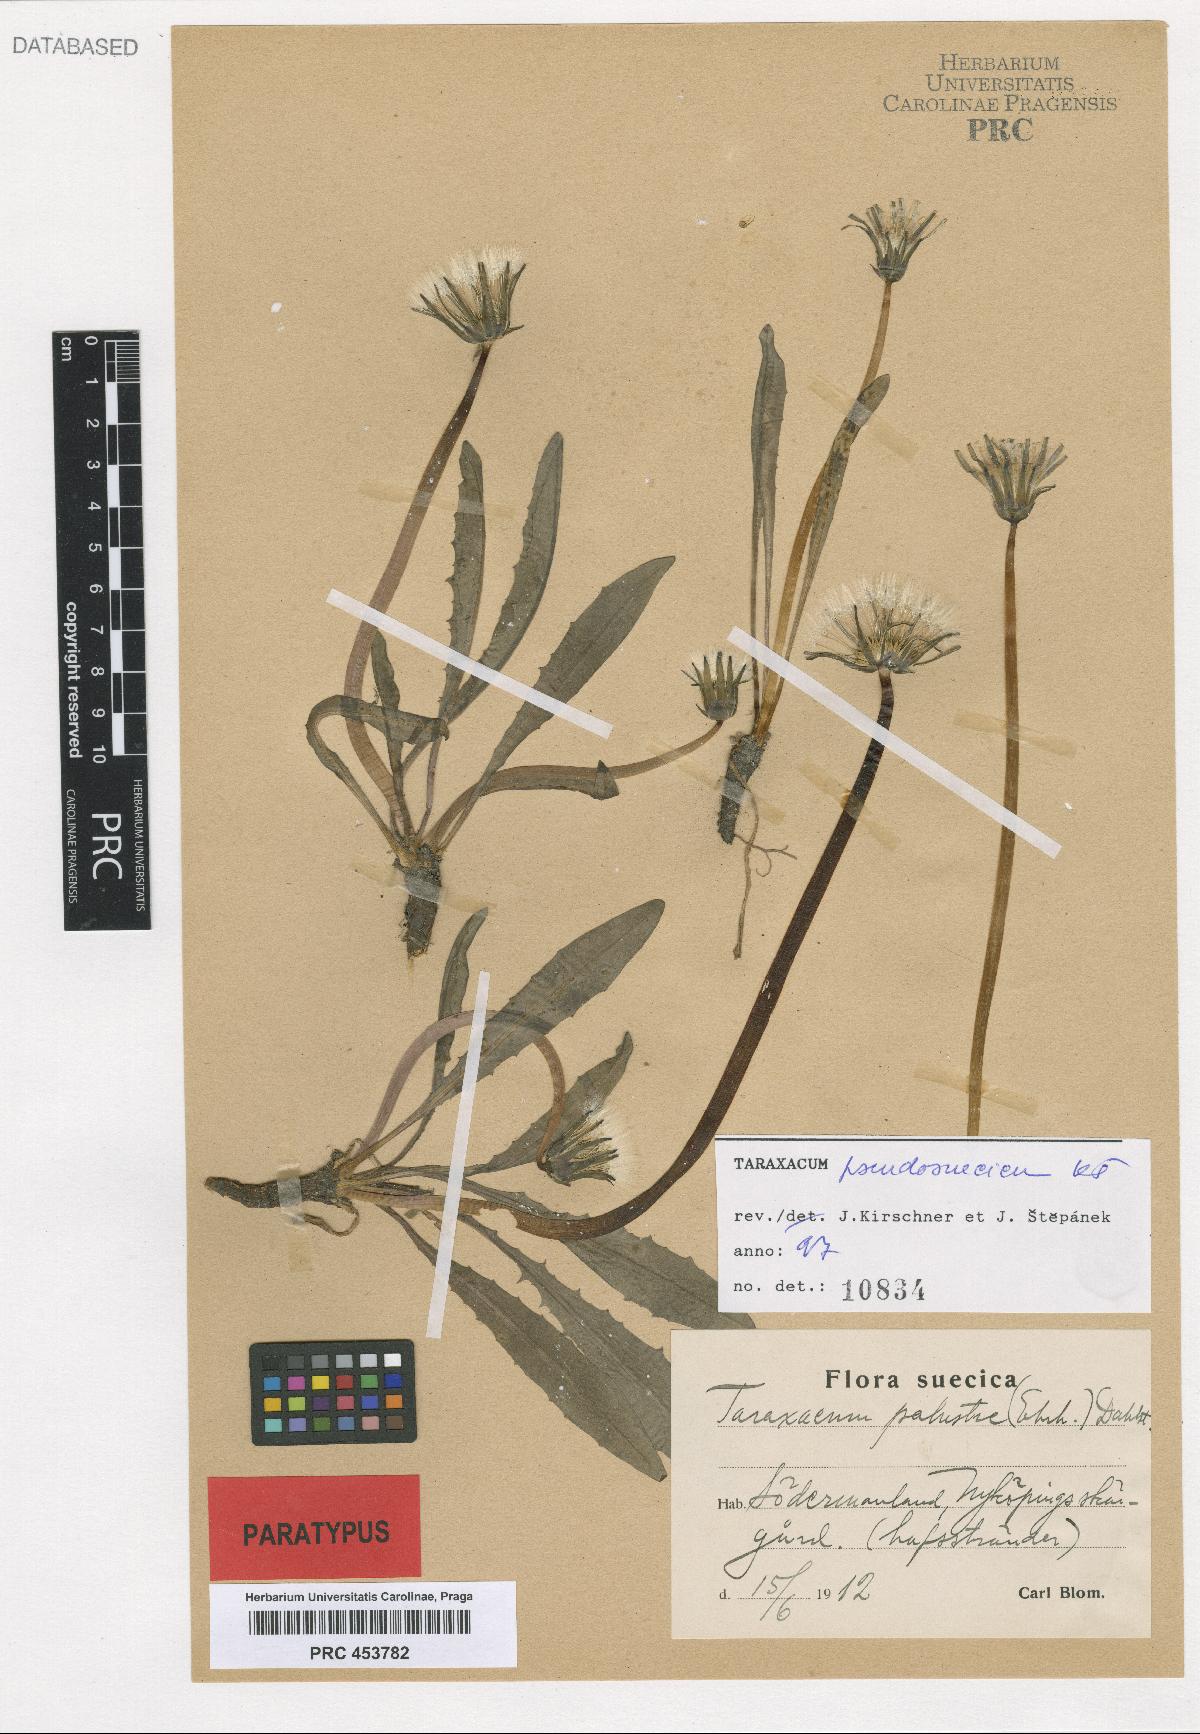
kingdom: Plantae
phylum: Tracheophyta
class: Magnoliopsida
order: Asterales
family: Asteraceae
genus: Taraxacum
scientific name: Taraxacum pseudosuecicum
